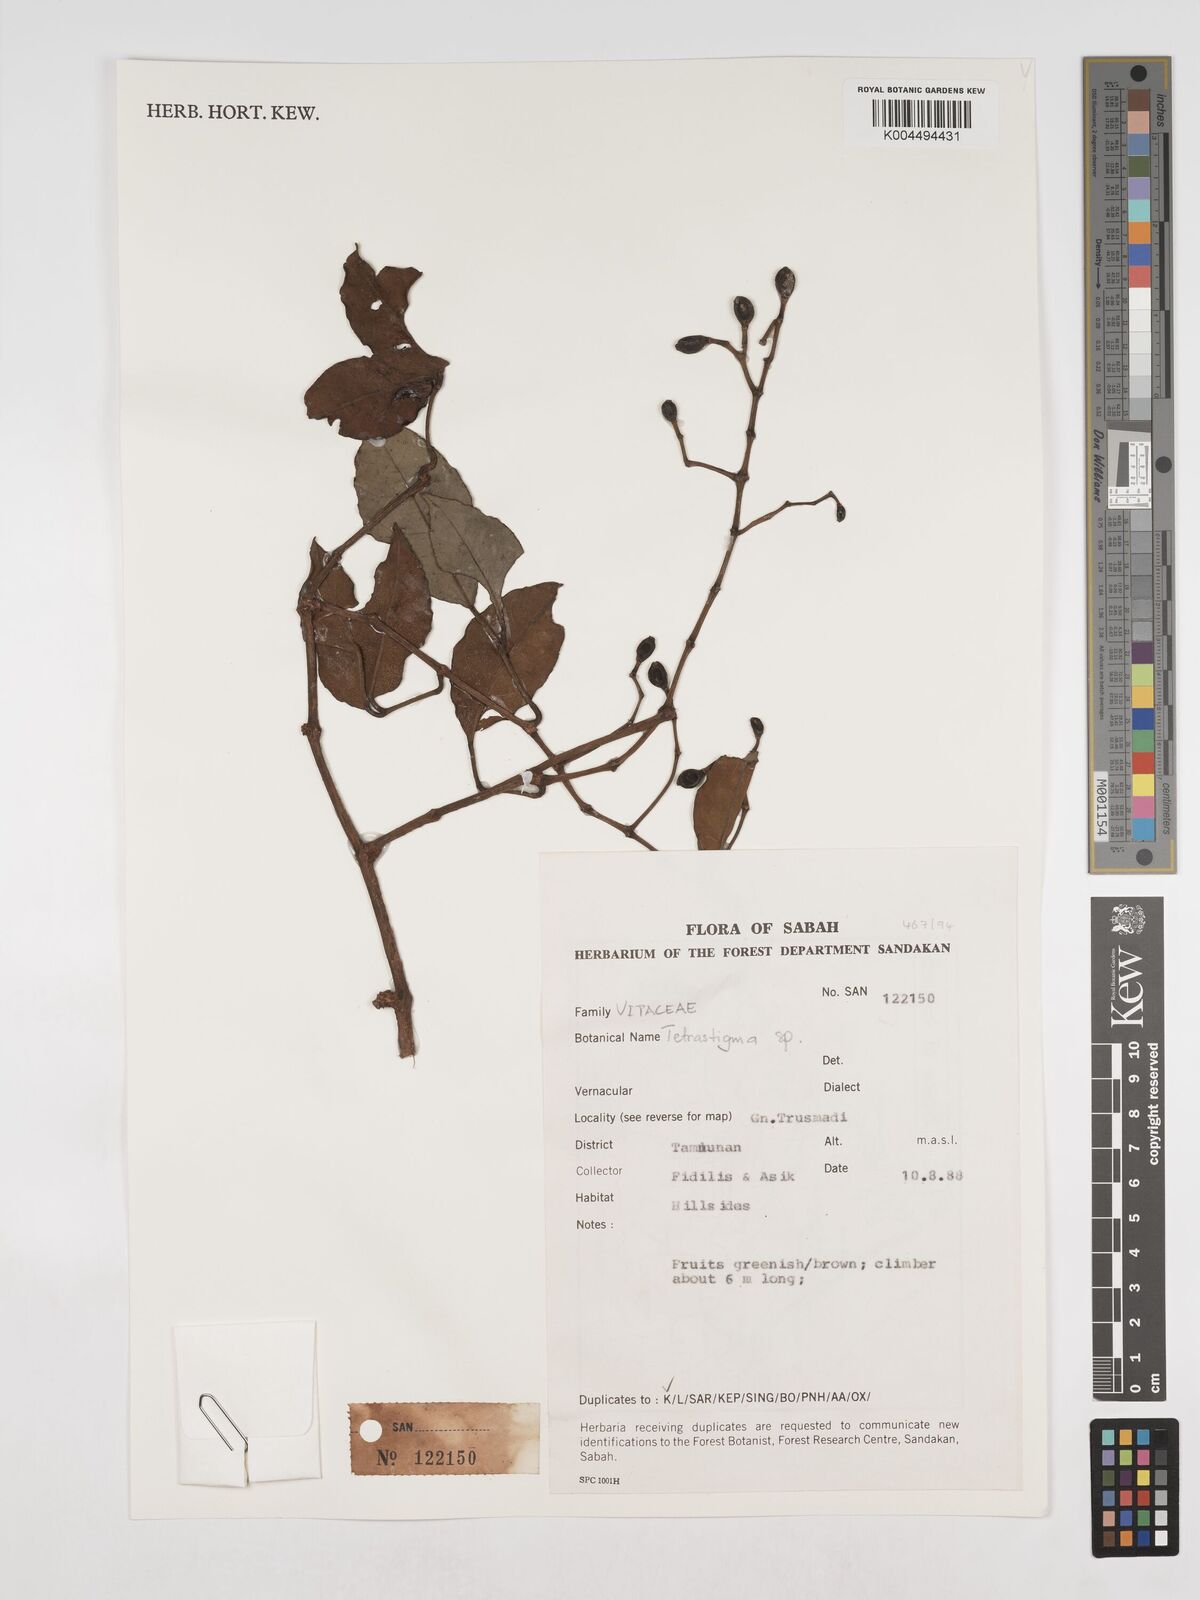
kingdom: Plantae
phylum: Tracheophyta
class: Magnoliopsida
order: Vitales
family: Vitaceae
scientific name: Vitaceae
